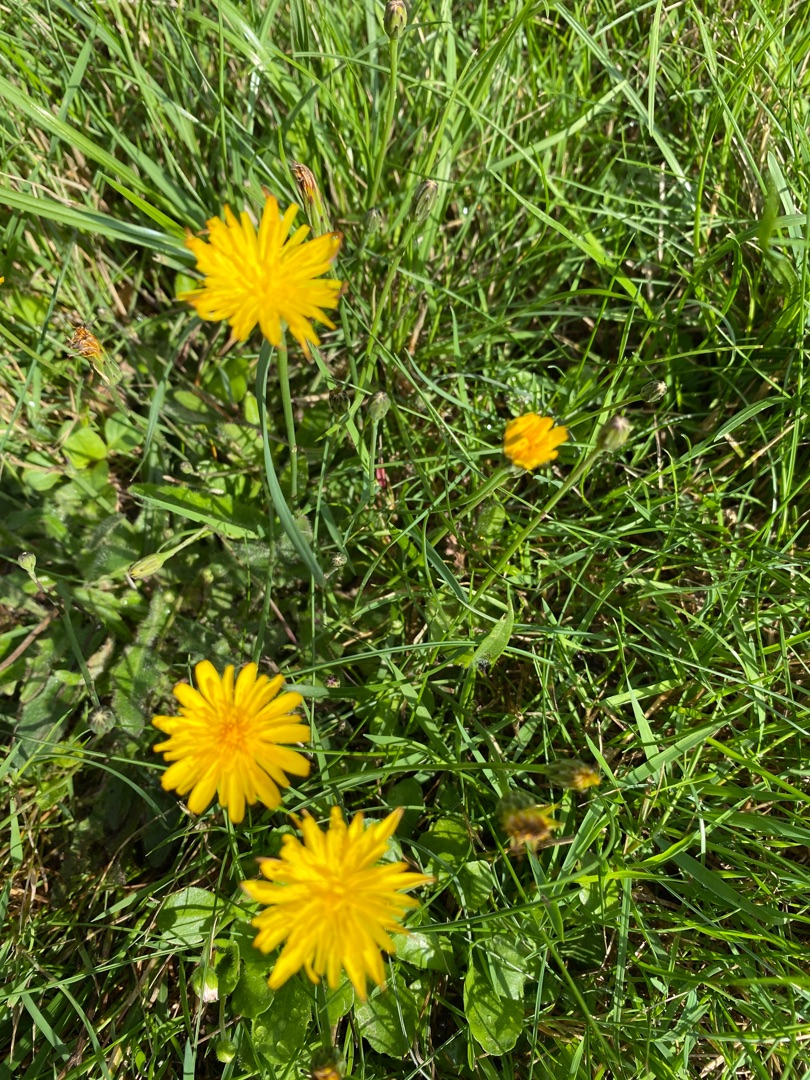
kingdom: Plantae
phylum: Tracheophyta
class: Magnoliopsida
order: Asterales
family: Asteraceae
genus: Hypochaeris
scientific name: Hypochaeris radicata
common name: Almindelig kongepen
